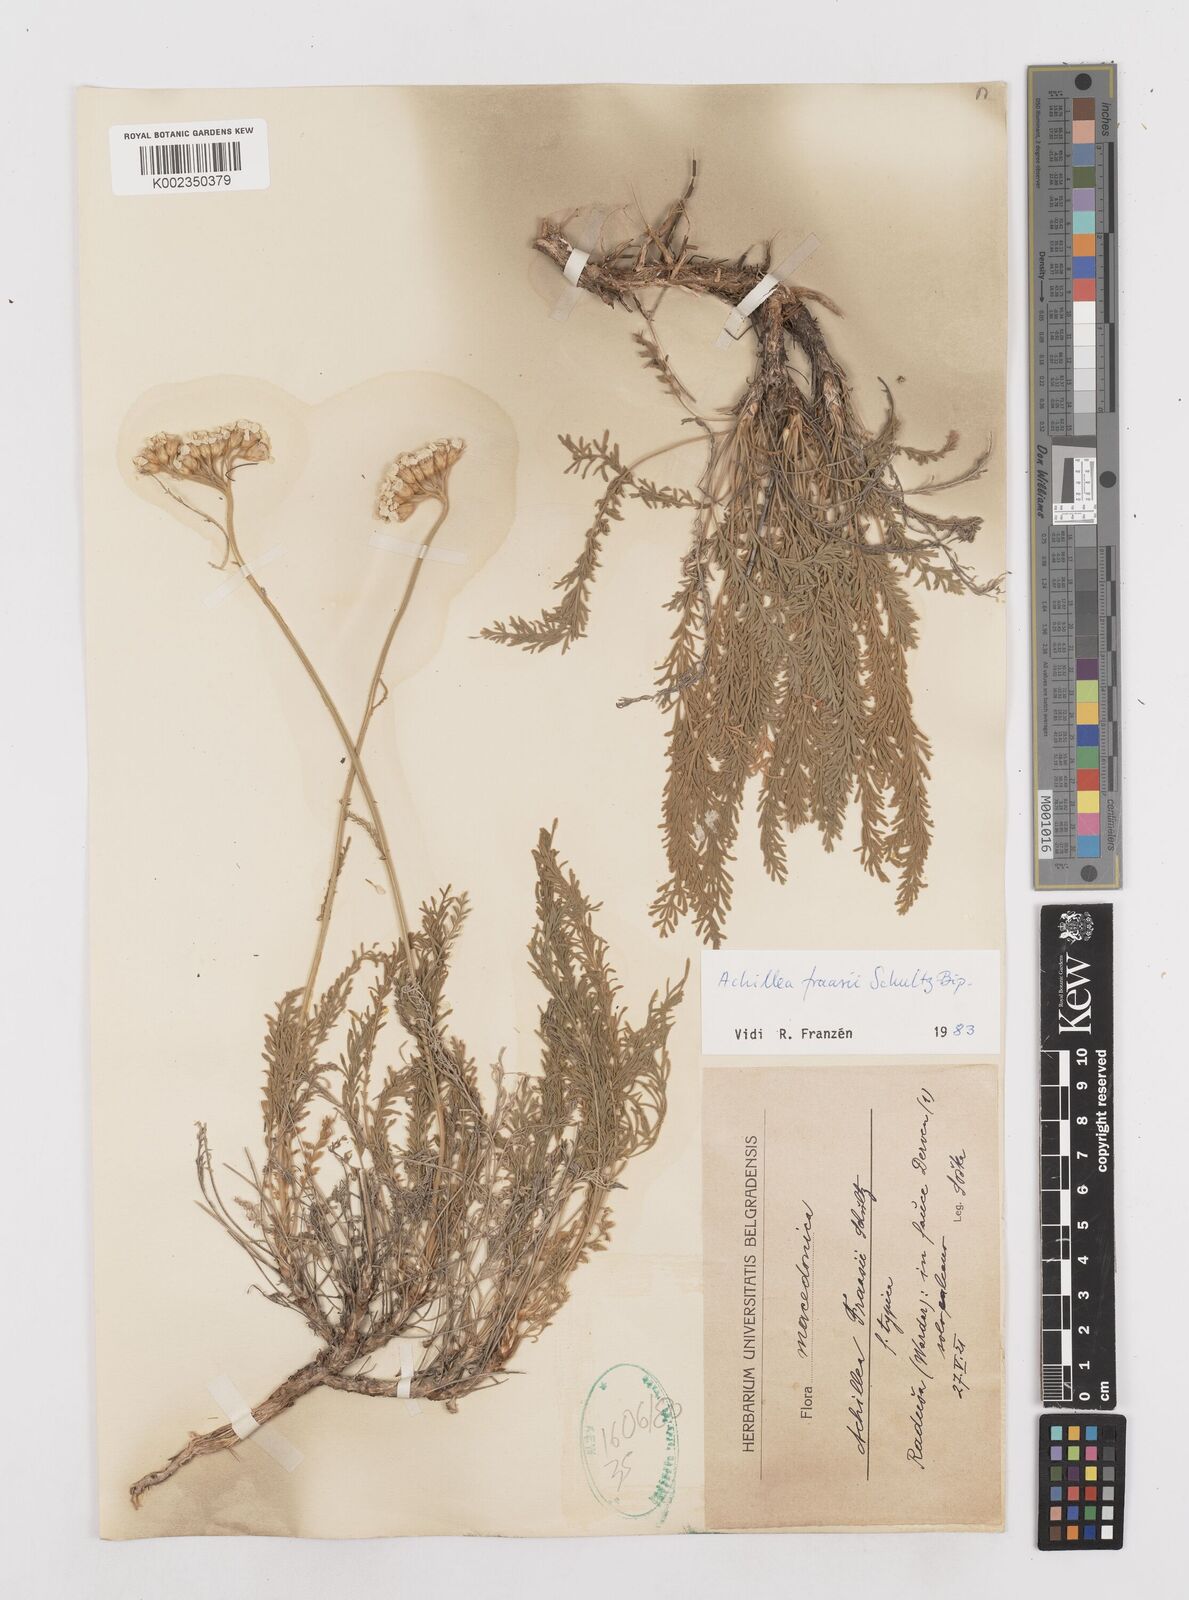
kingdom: Plantae
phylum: Tracheophyta
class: Magnoliopsida
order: Asterales
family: Asteraceae
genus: Achillea
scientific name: Achillea fraasii
